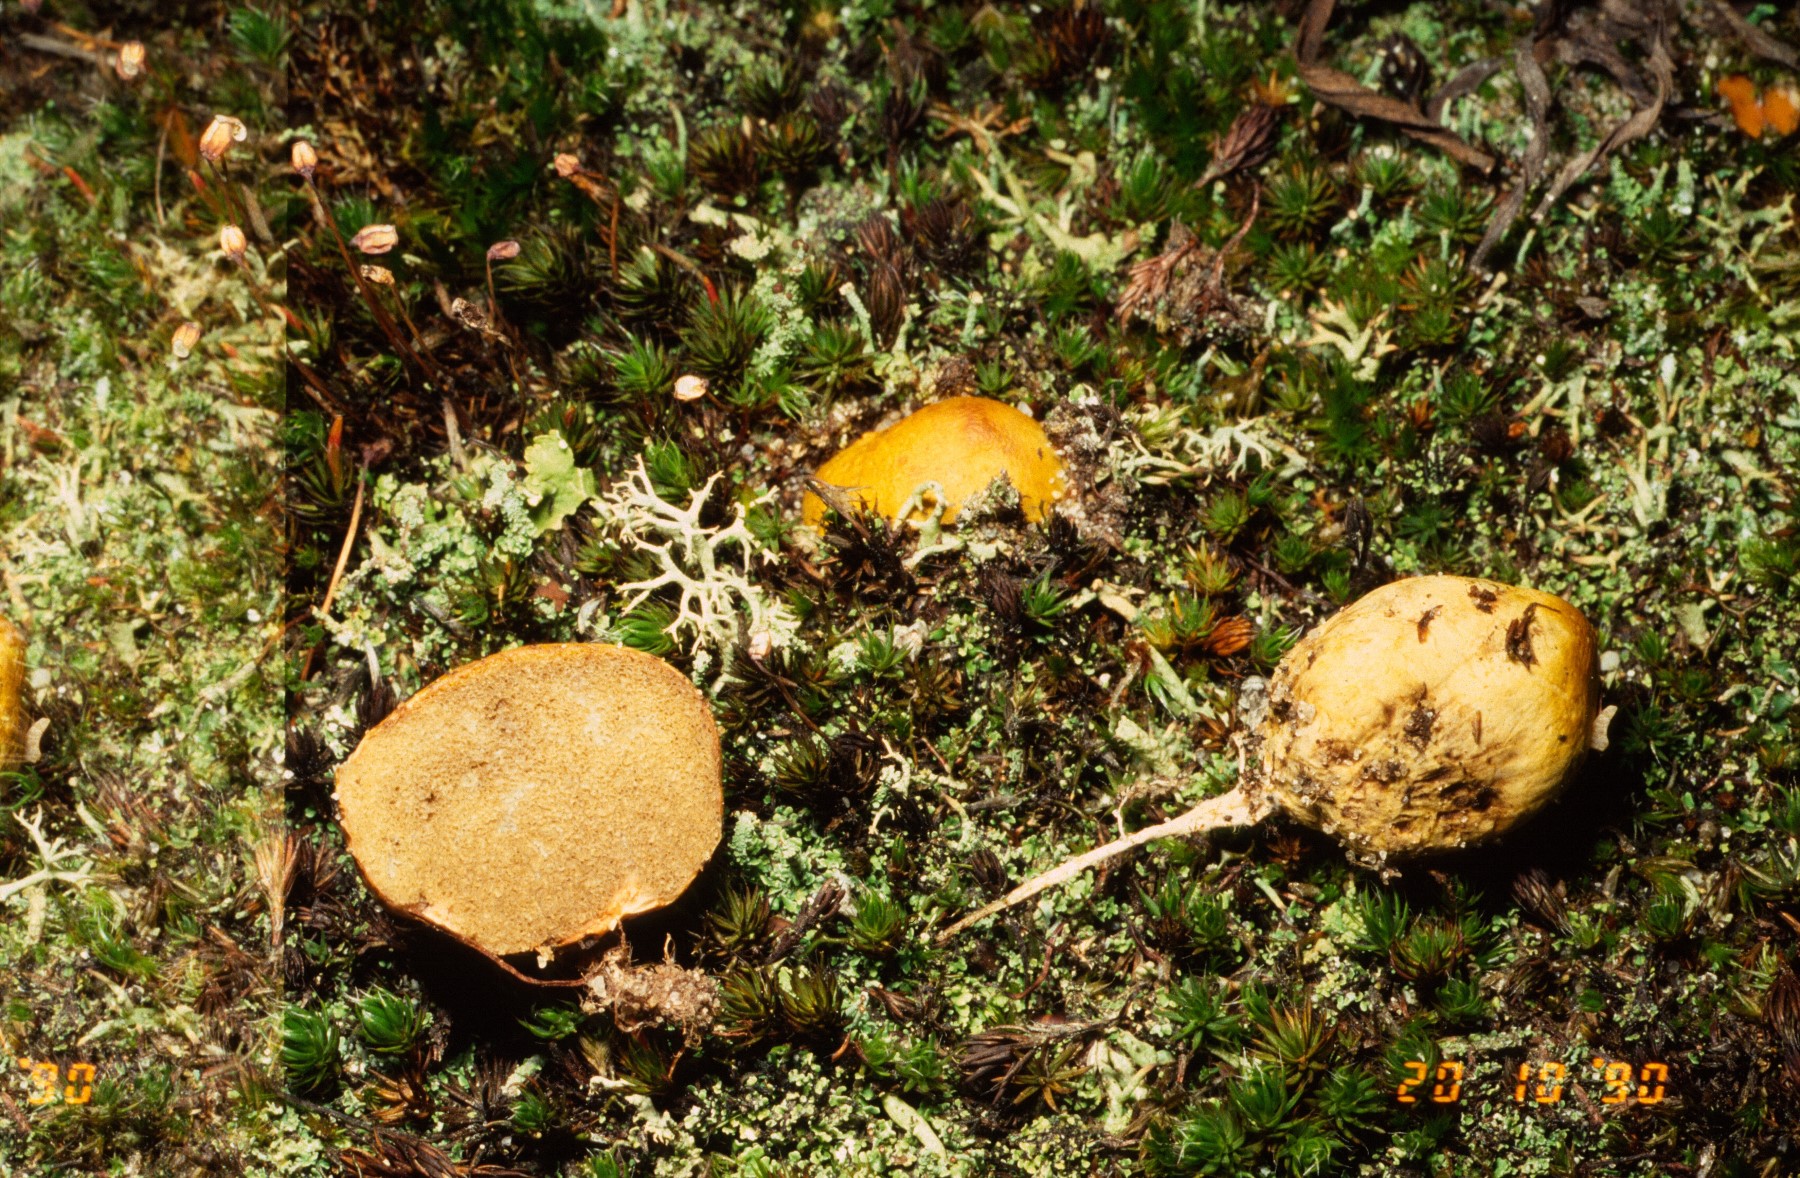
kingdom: Fungi
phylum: Basidiomycota
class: Agaricomycetes
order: Boletales
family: Rhizopogonaceae
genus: Rhizopogon
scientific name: Rhizopogon obtextus
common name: gul skægtrøffel
